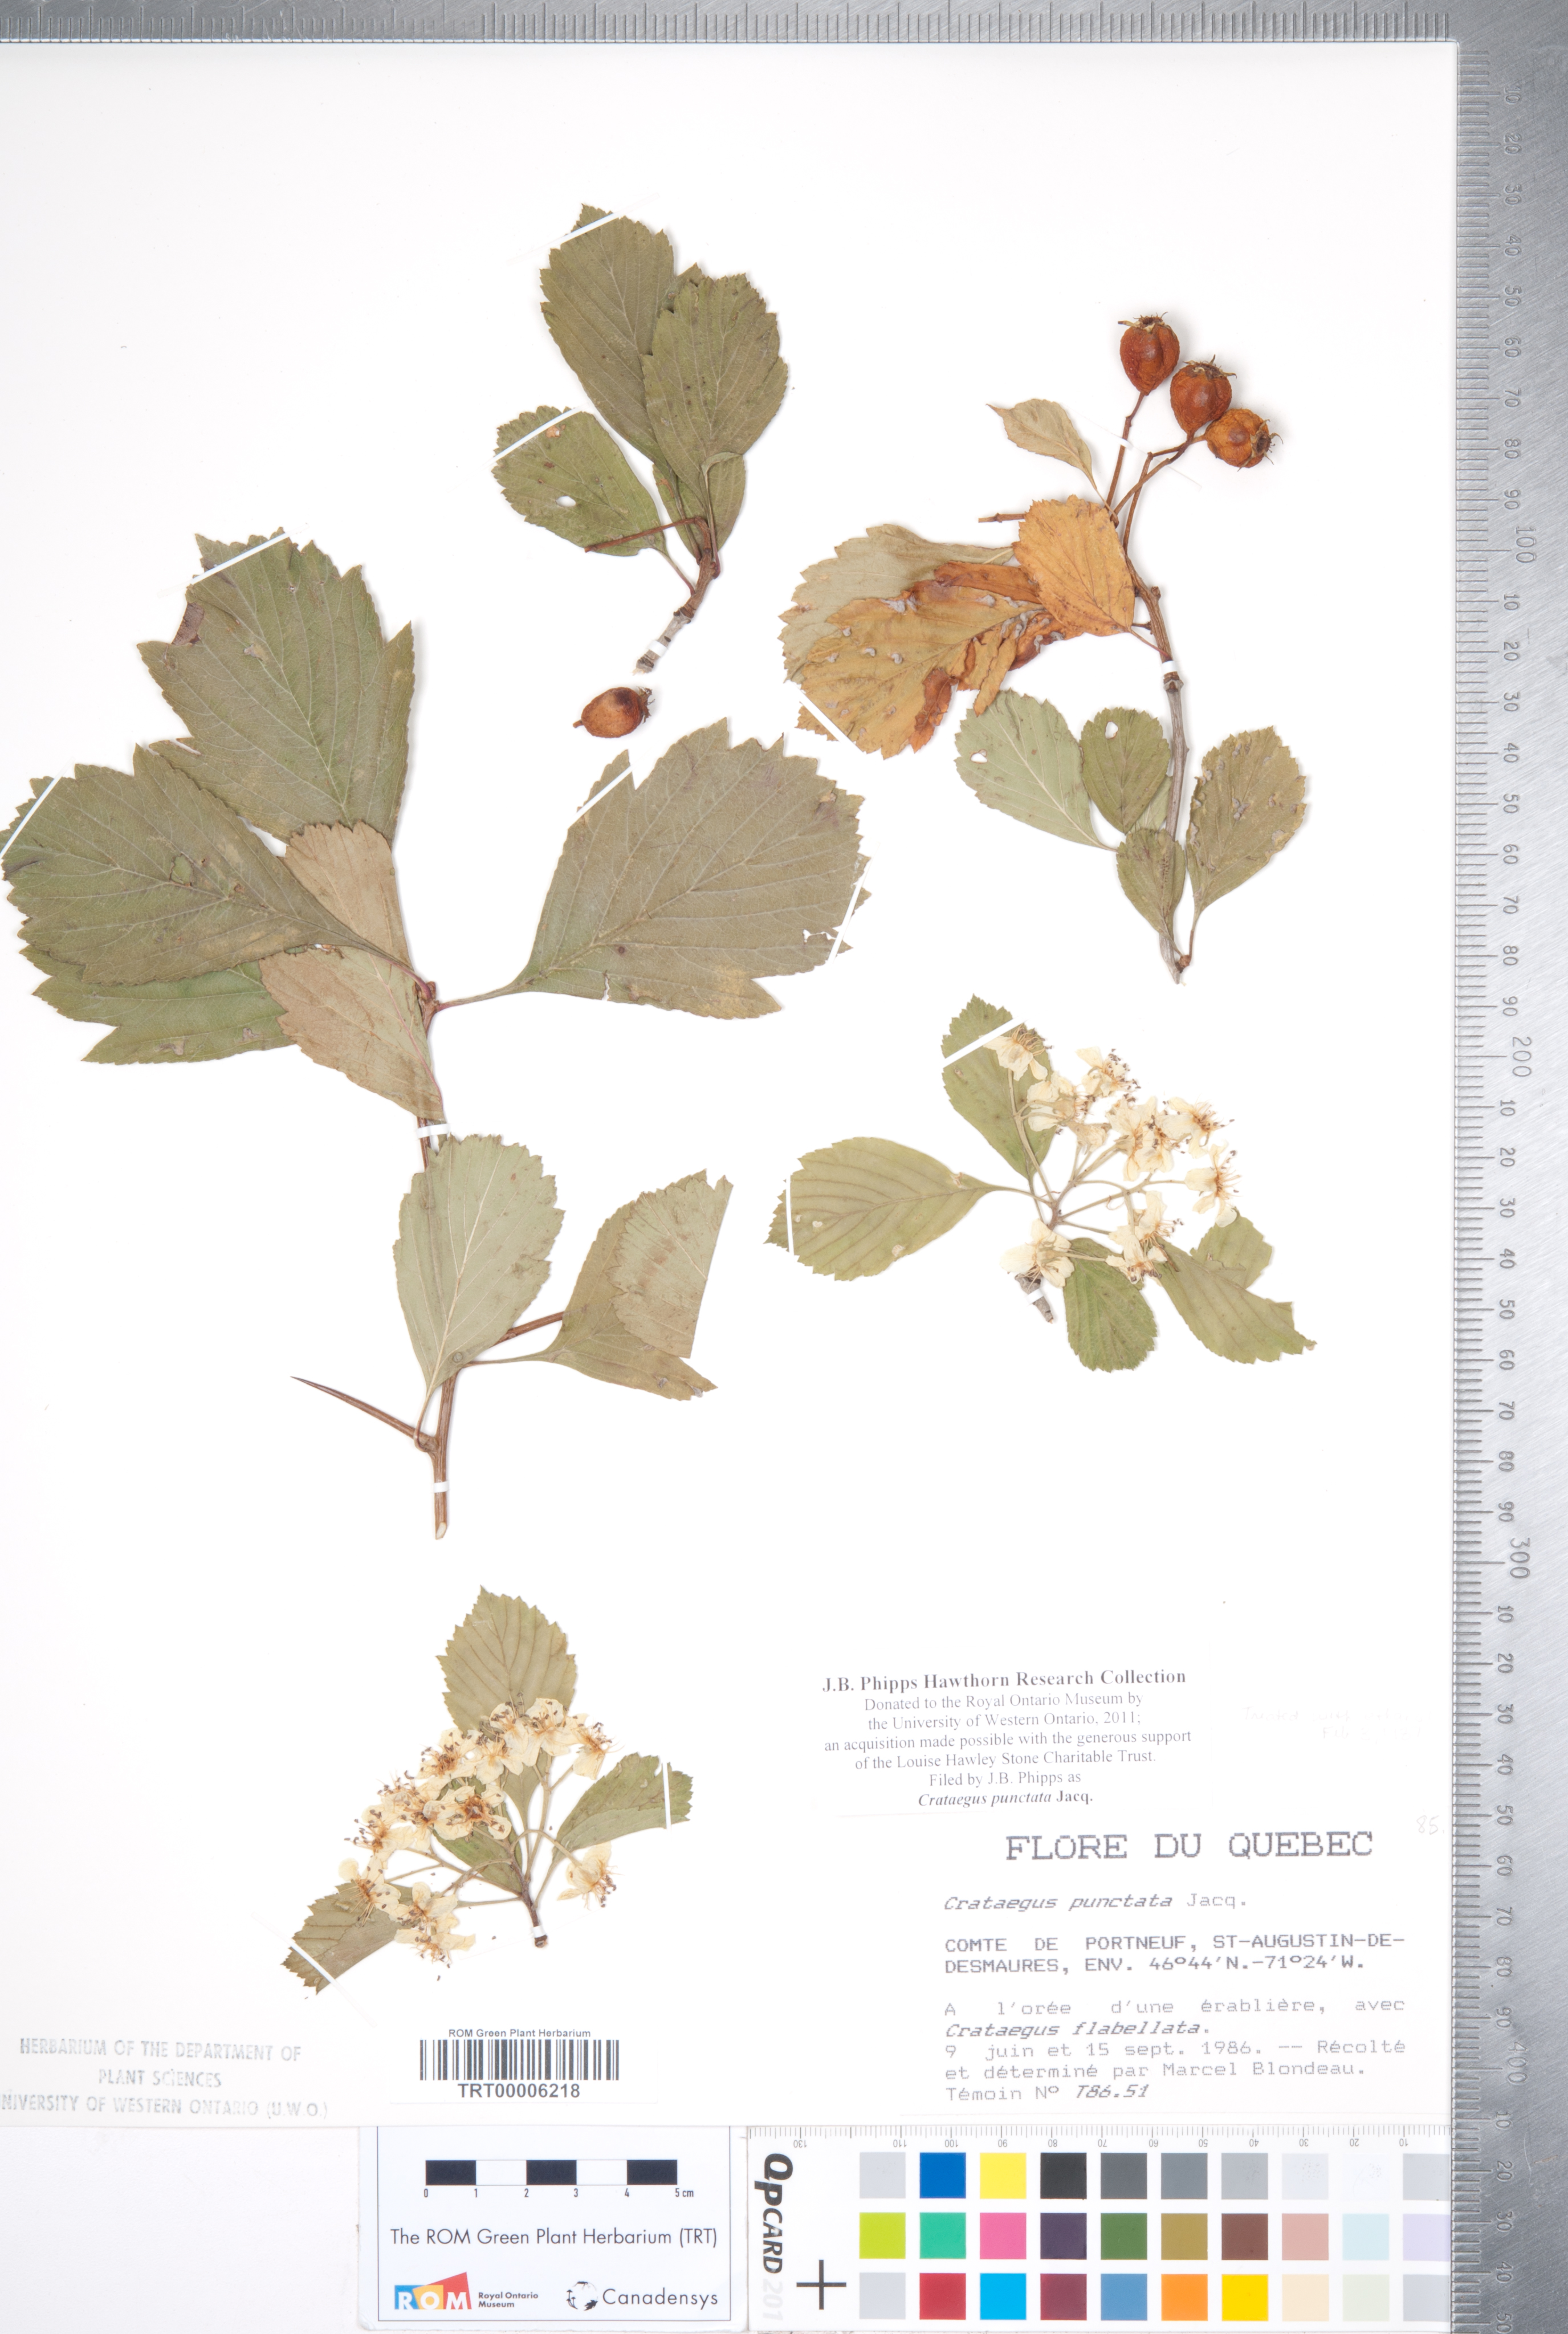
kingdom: Plantae
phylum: Tracheophyta
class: Magnoliopsida
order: Rosales
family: Rosaceae
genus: Crataegus
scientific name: Crataegus punctata
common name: Dotted hawthorn
